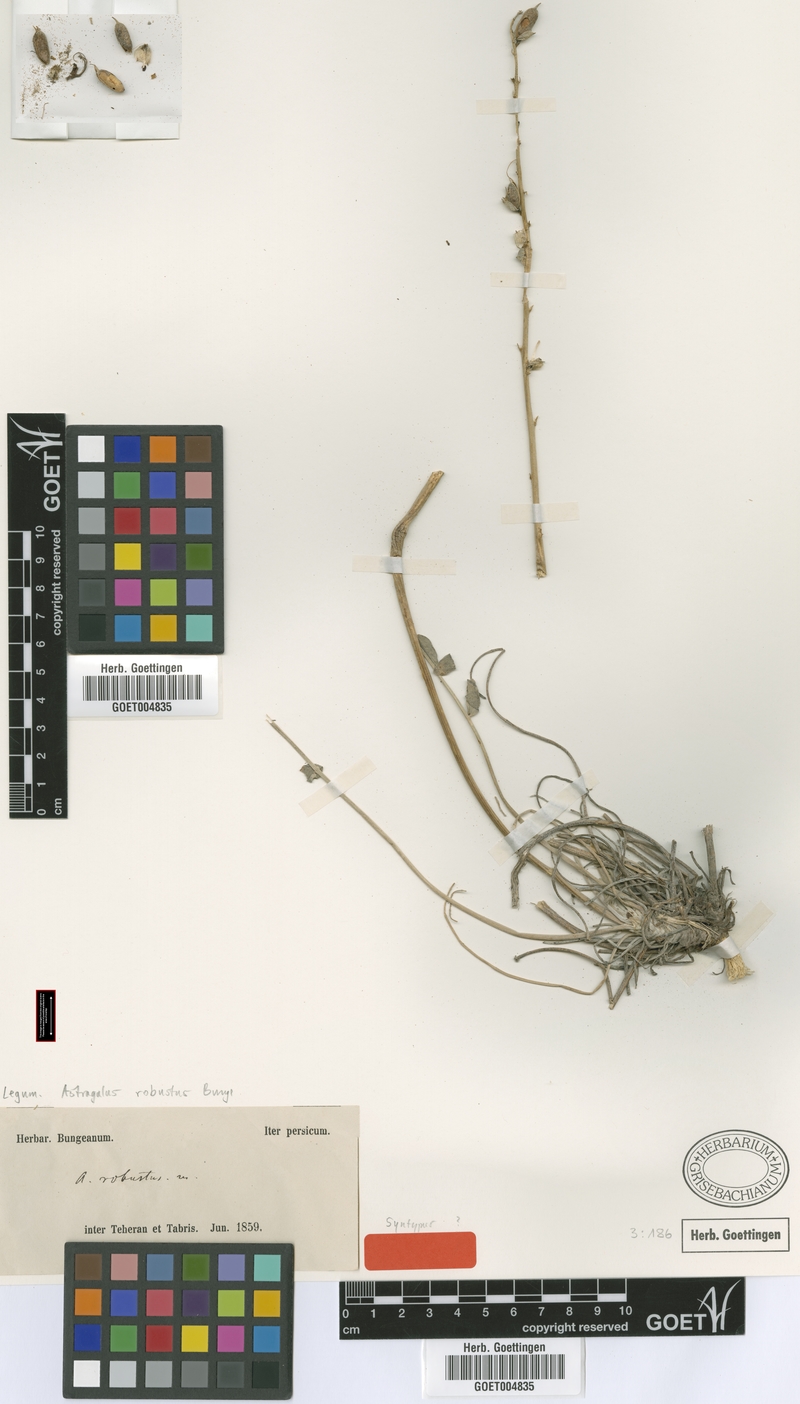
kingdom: Plantae
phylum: Tracheophyta
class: Magnoliopsida
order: Fabales
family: Fabaceae
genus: Astragalus
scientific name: Astragalus robustus
